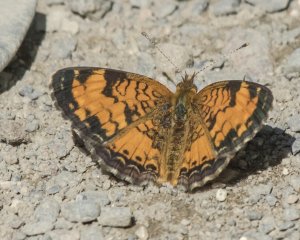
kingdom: Animalia
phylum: Arthropoda
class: Insecta
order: Lepidoptera
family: Nymphalidae
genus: Phyciodes
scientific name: Phyciodes tharos
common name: Northern Crescent
